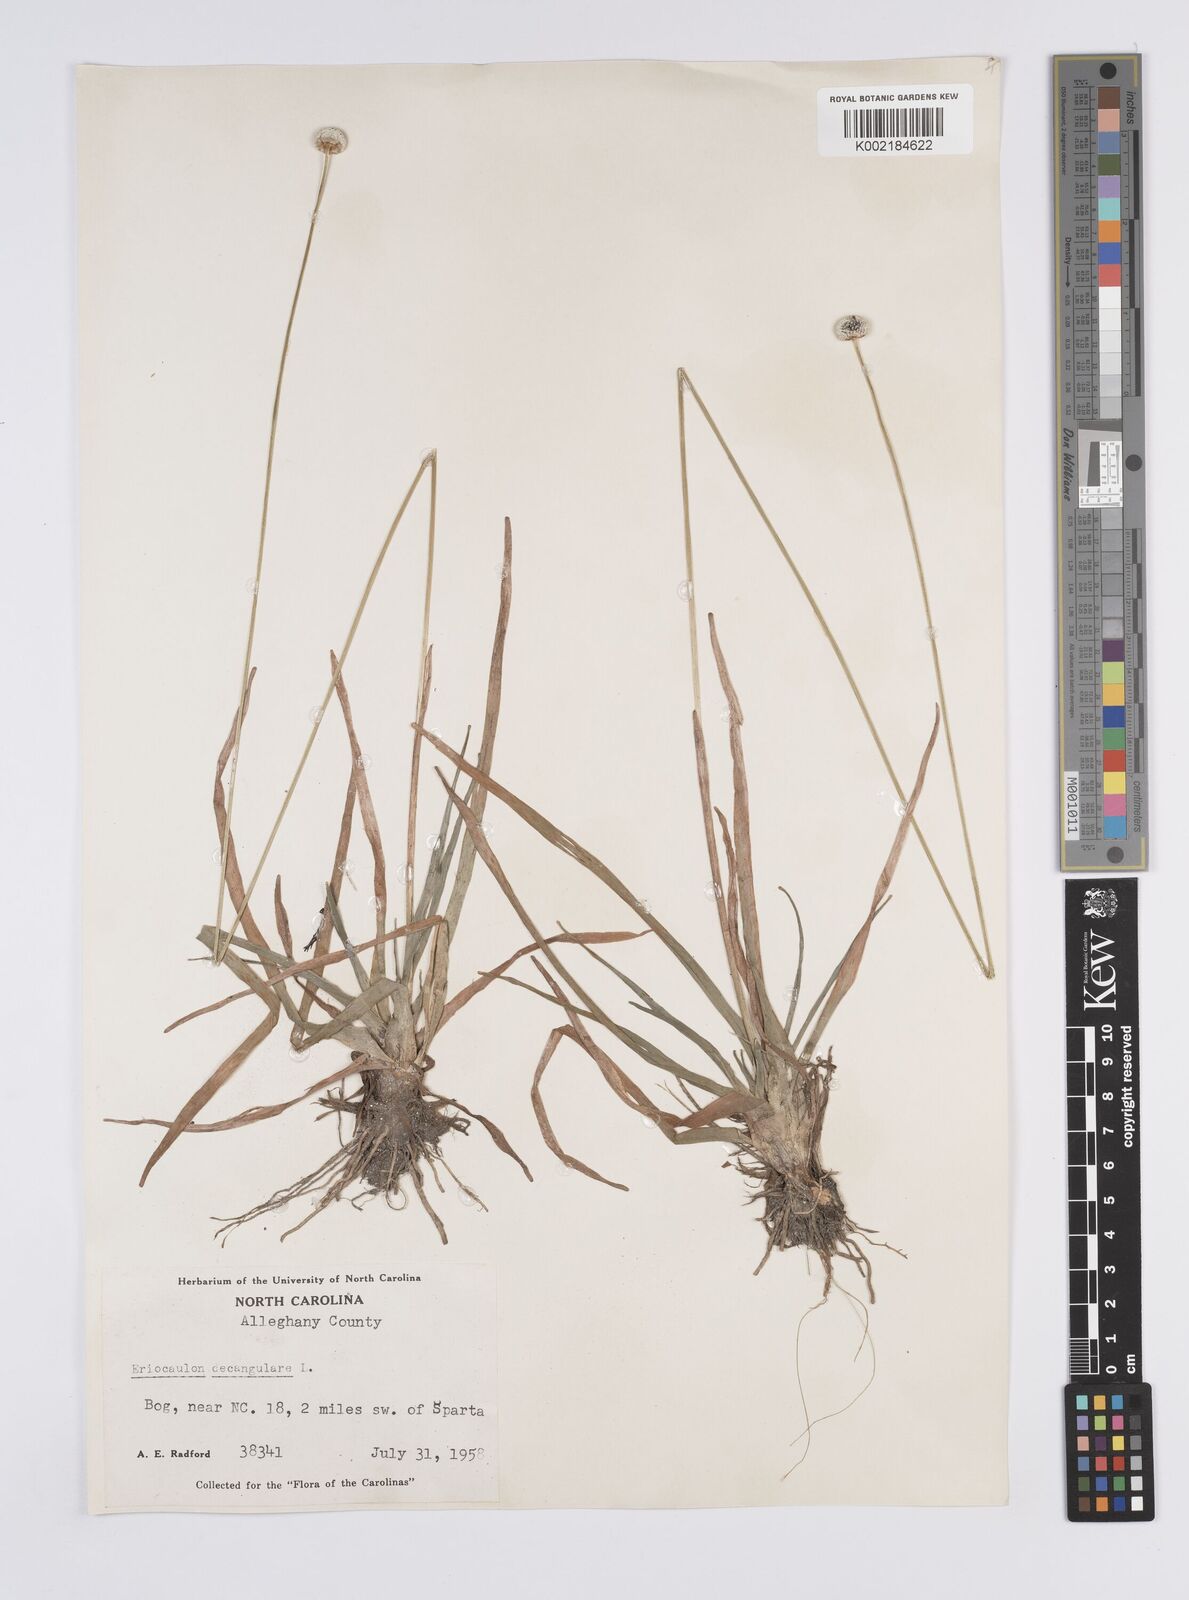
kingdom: Plantae
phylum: Tracheophyta
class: Liliopsida
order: Poales
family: Eriocaulaceae
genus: Eriocaulon
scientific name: Eriocaulon decangulare
